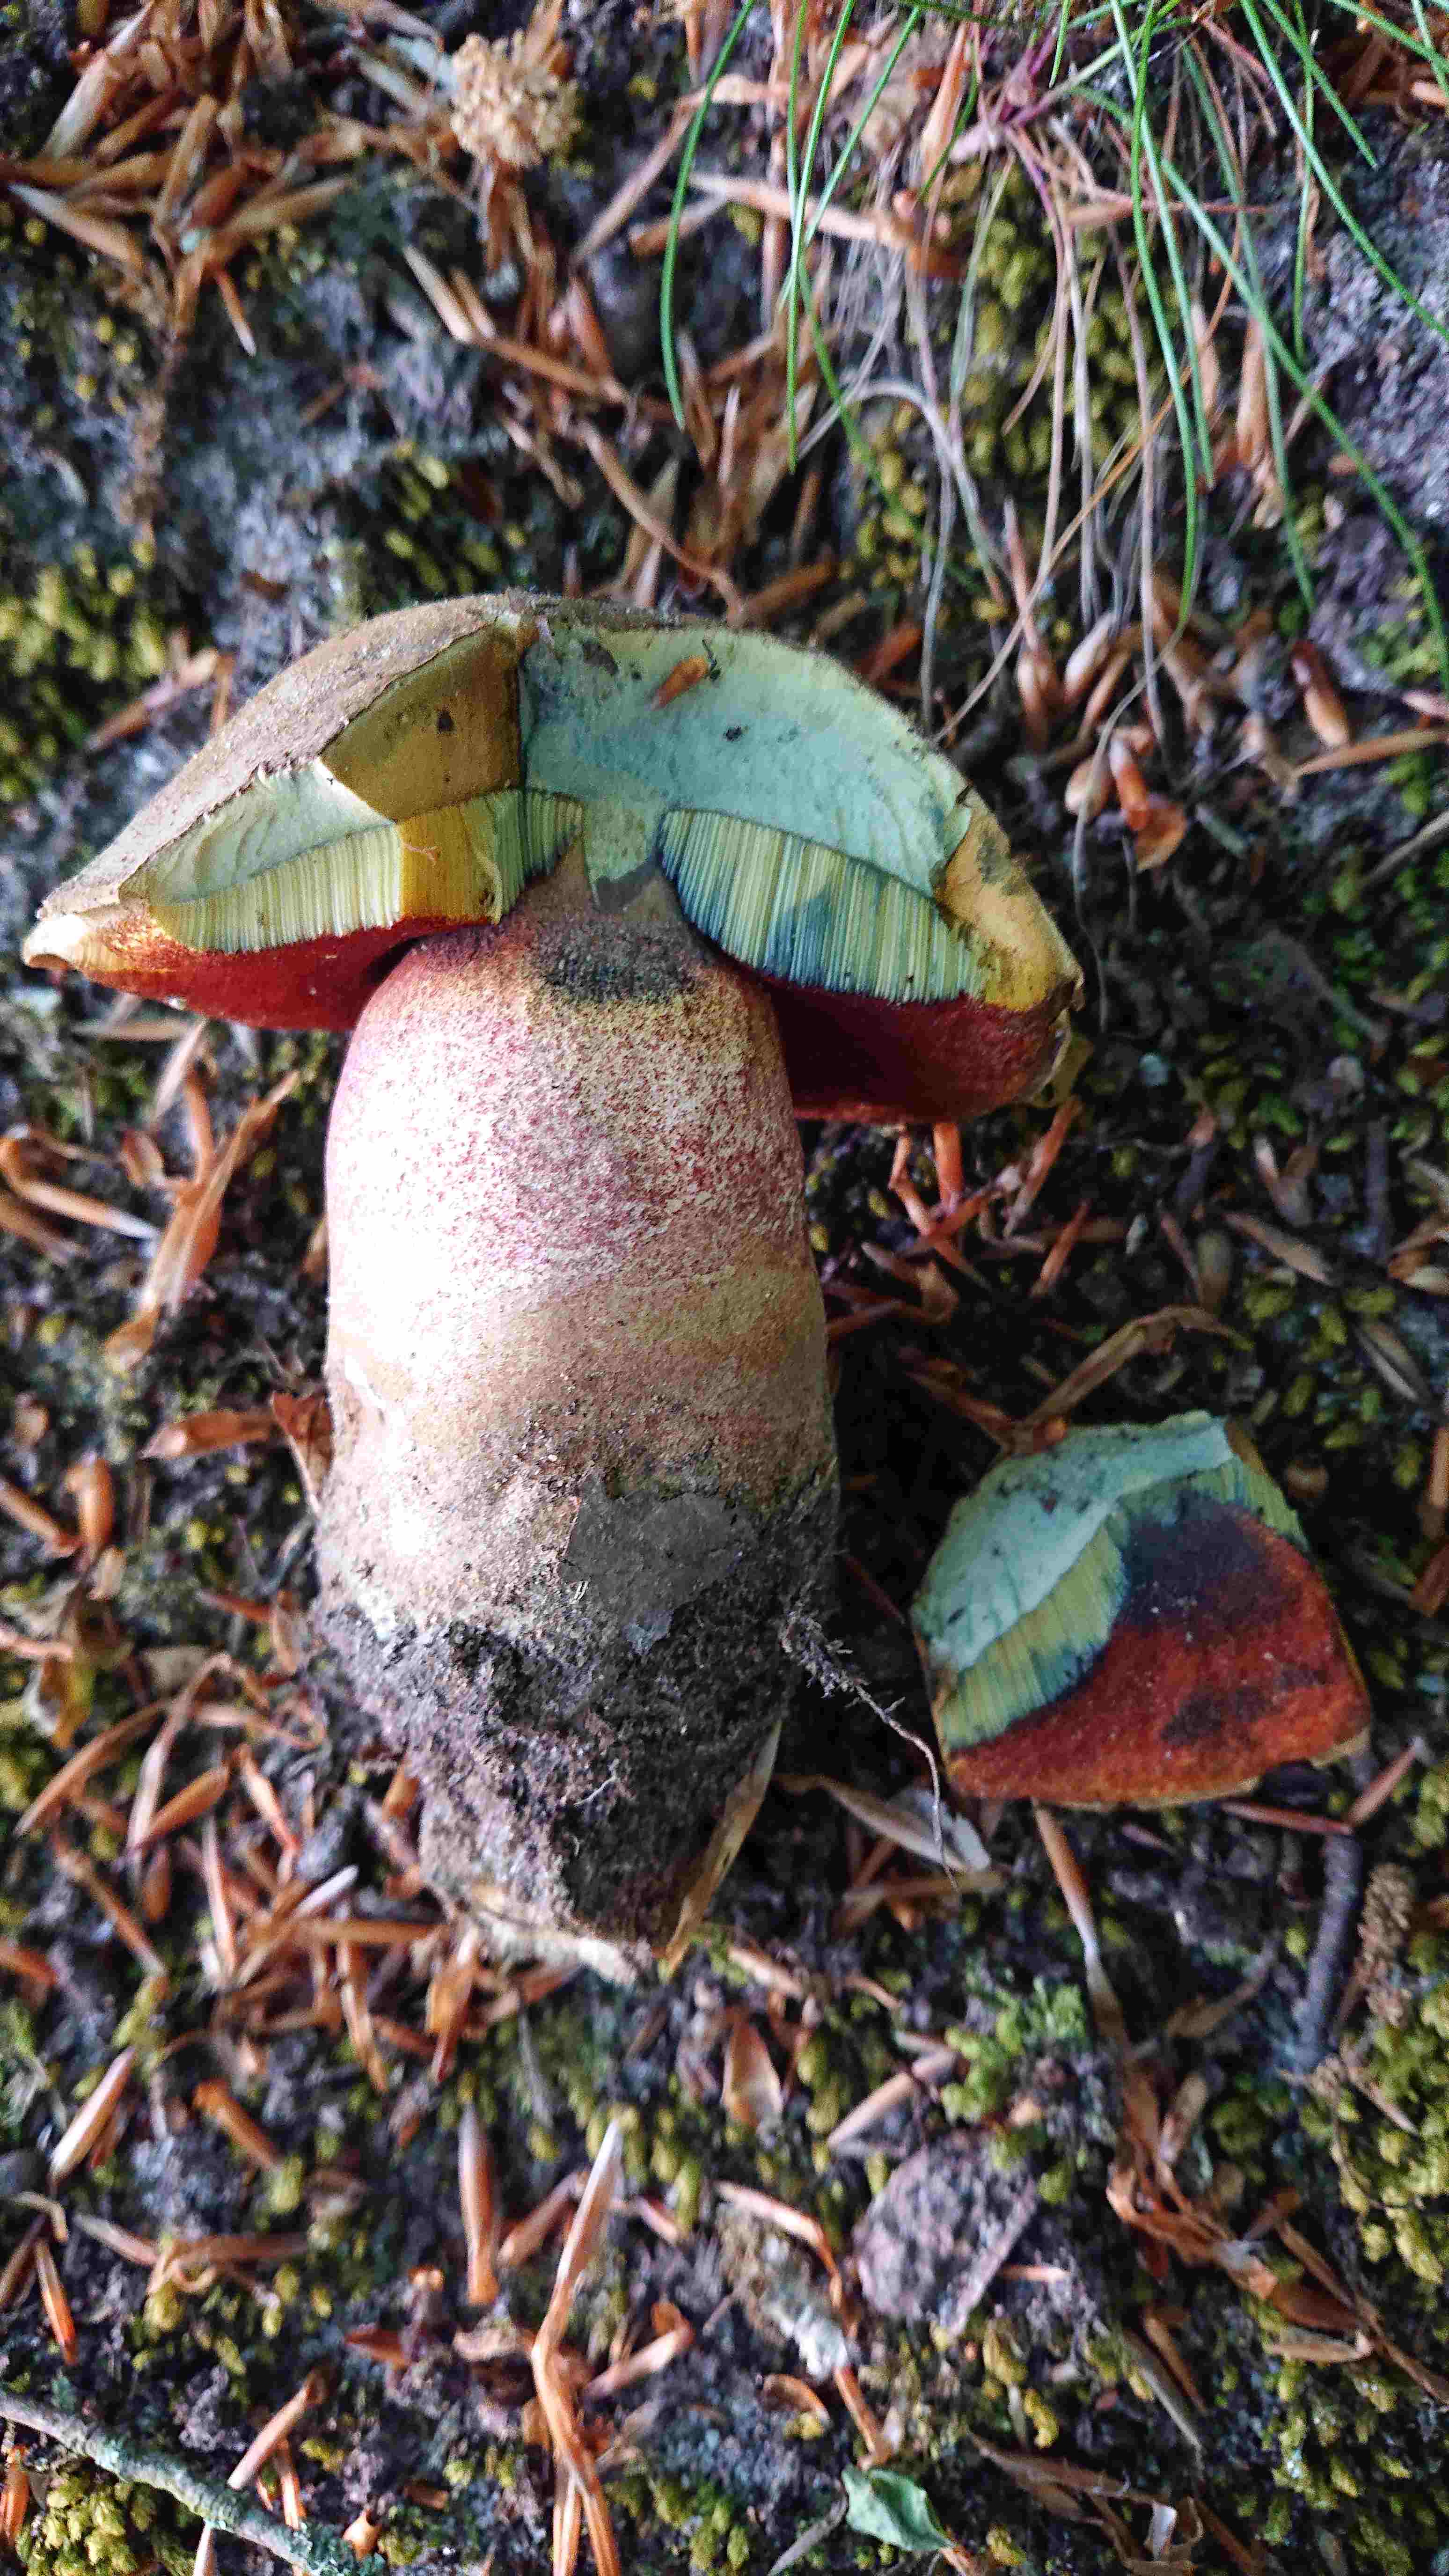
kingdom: Fungi
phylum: Basidiomycota
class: Agaricomycetes
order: Boletales
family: Boletaceae
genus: Neoboletus
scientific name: Neoboletus erythropus
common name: punktstokket indigorørhat
